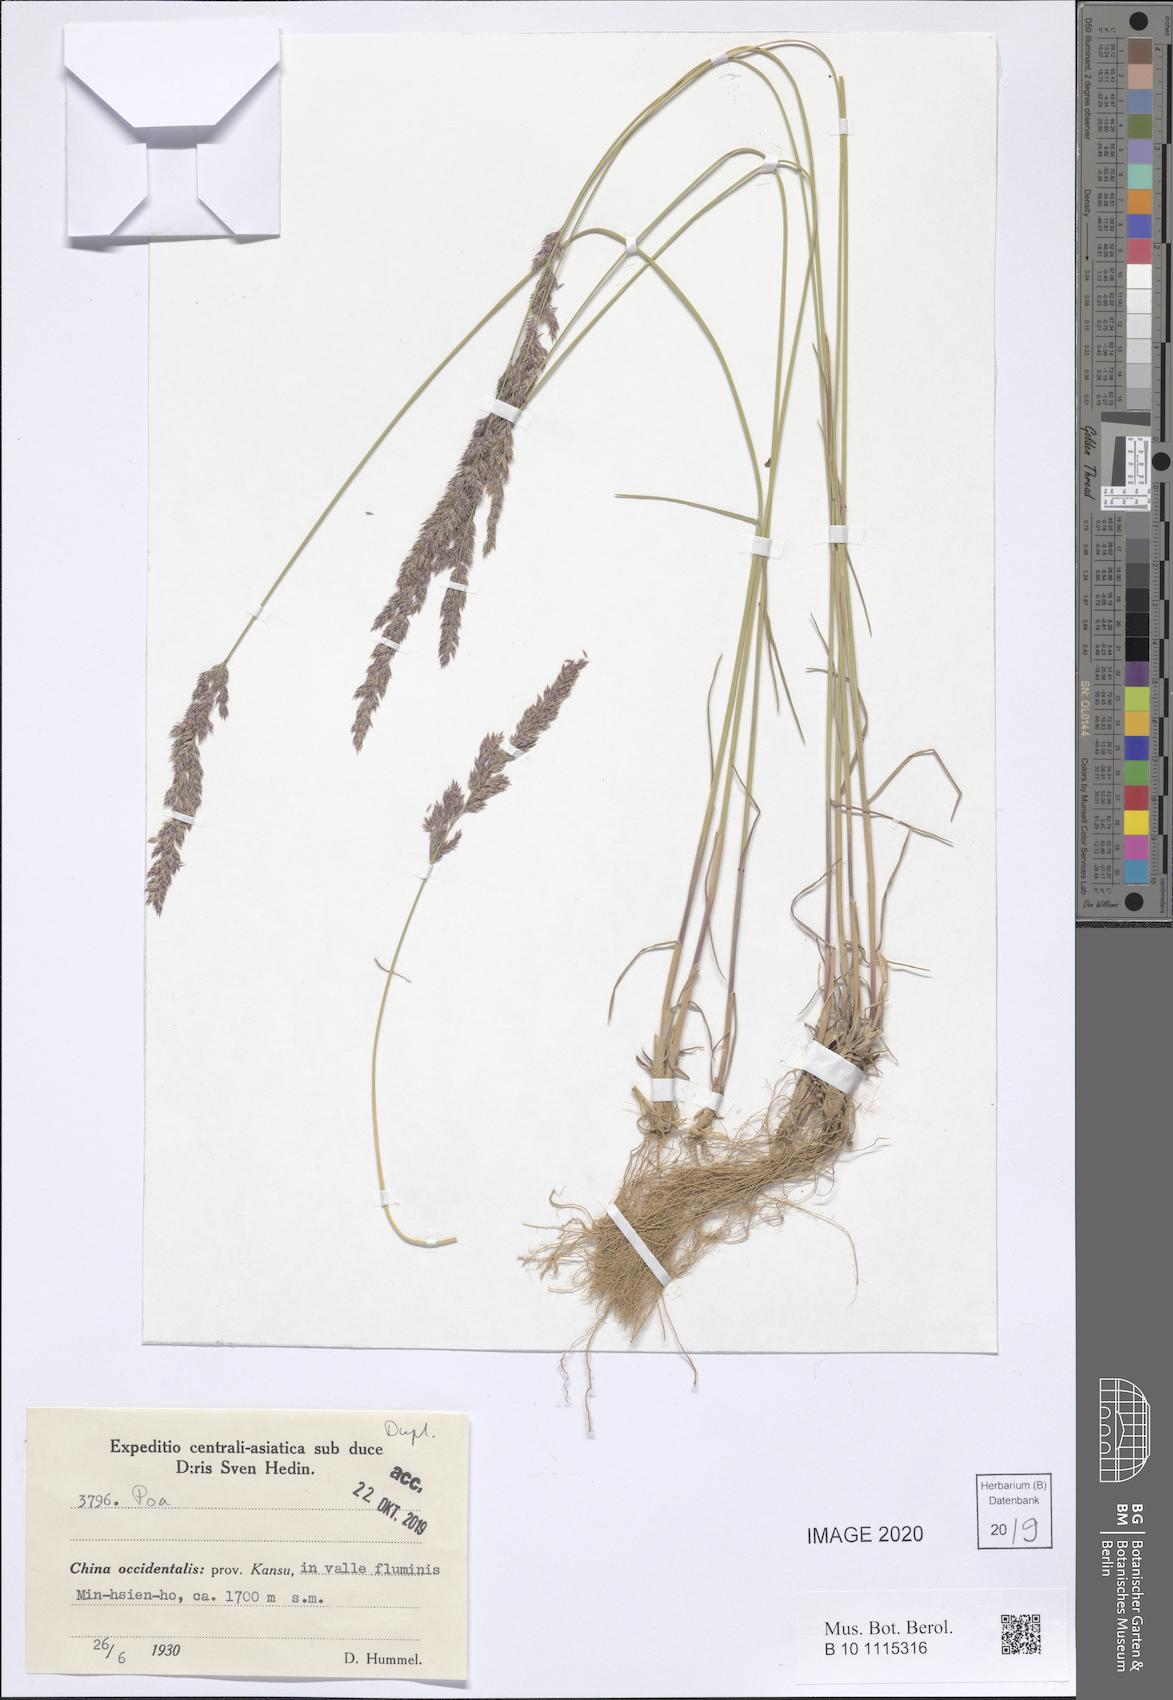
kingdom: Plantae
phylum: Tracheophyta
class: Liliopsida
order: Poales
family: Poaceae
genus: Poa
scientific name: Poa
